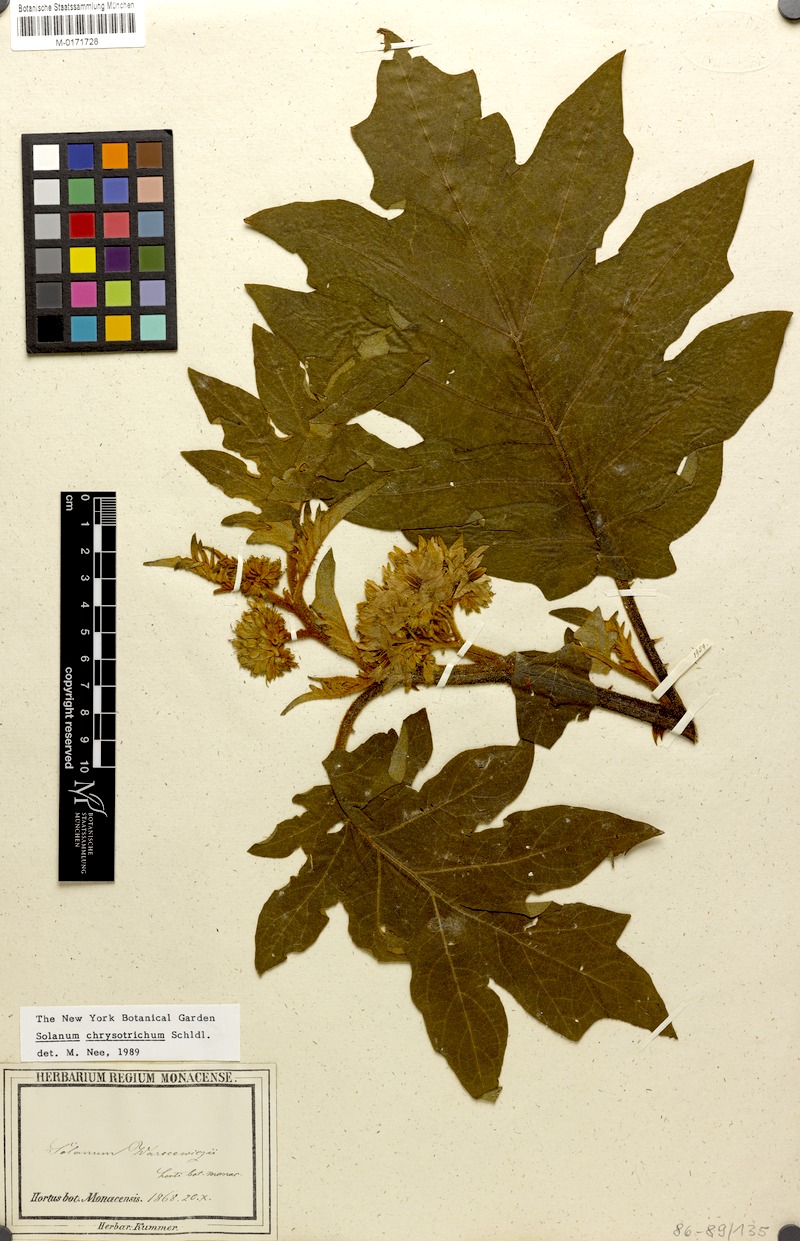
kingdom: Plantae
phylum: Tracheophyta
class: Magnoliopsida
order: Solanales
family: Solanaceae
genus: Solanum
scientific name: Solanum chrysotrichum
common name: Nightshade
